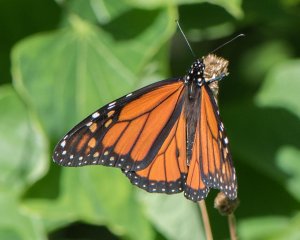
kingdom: Animalia
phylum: Arthropoda
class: Insecta
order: Lepidoptera
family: Nymphalidae
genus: Danaus
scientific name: Danaus plexippus
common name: Monarch
